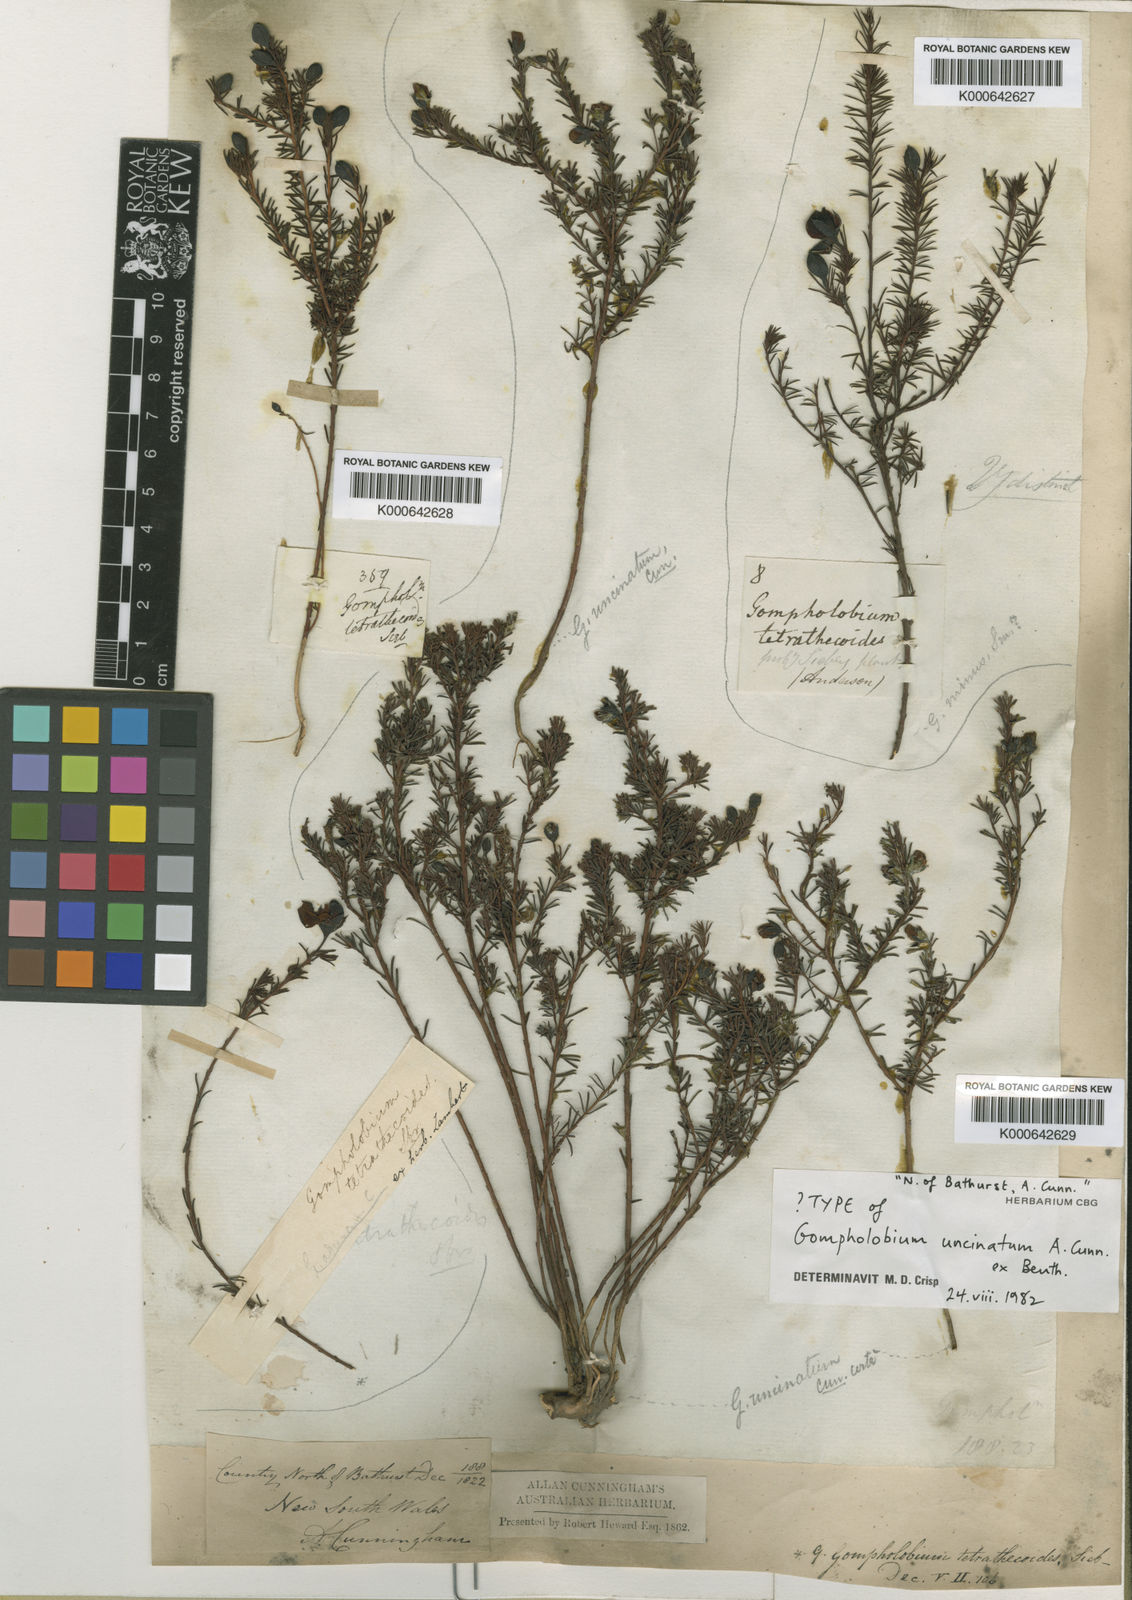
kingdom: Plantae
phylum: Tracheophyta
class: Magnoliopsida
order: Fabales
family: Fabaceae
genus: Gompholobium
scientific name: Gompholobium uncinatum
